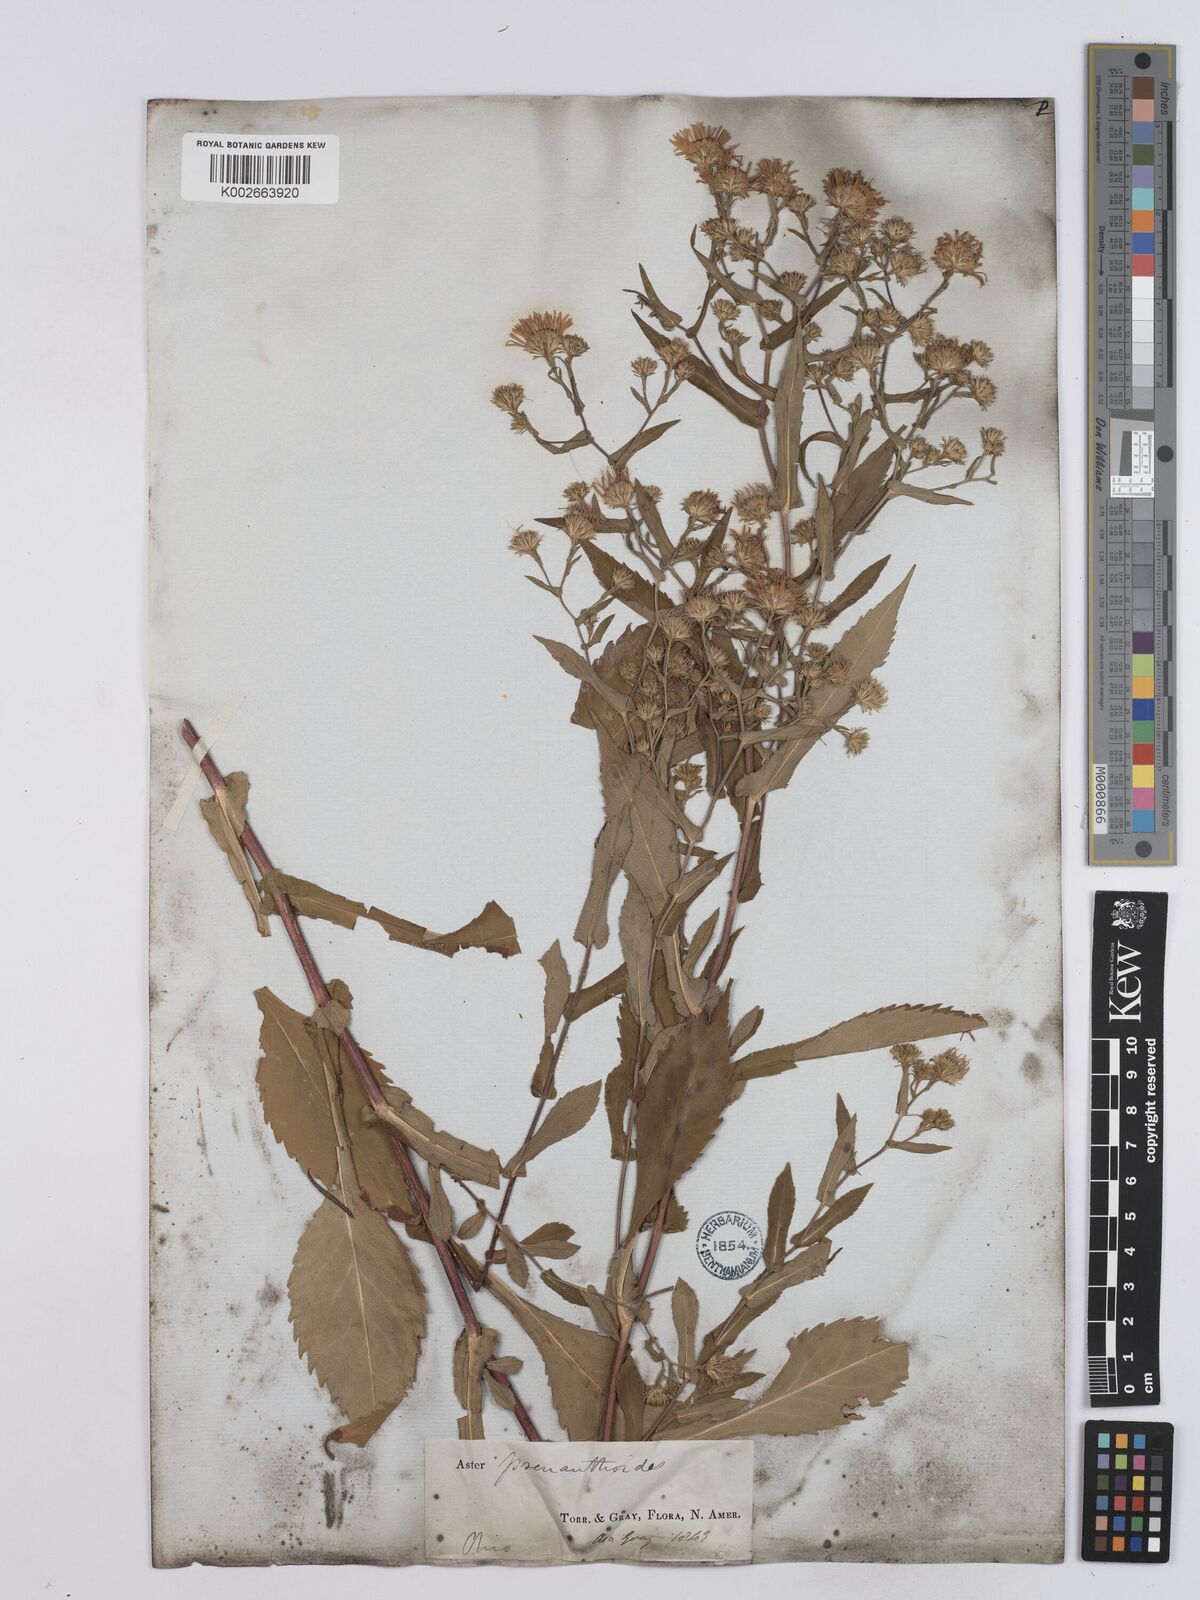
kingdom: Plantae
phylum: Tracheophyta
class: Magnoliopsida
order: Asterales
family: Asteraceae
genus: Symphyotrichum
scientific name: Symphyotrichum prenanthoides
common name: Crooked-stem aster
